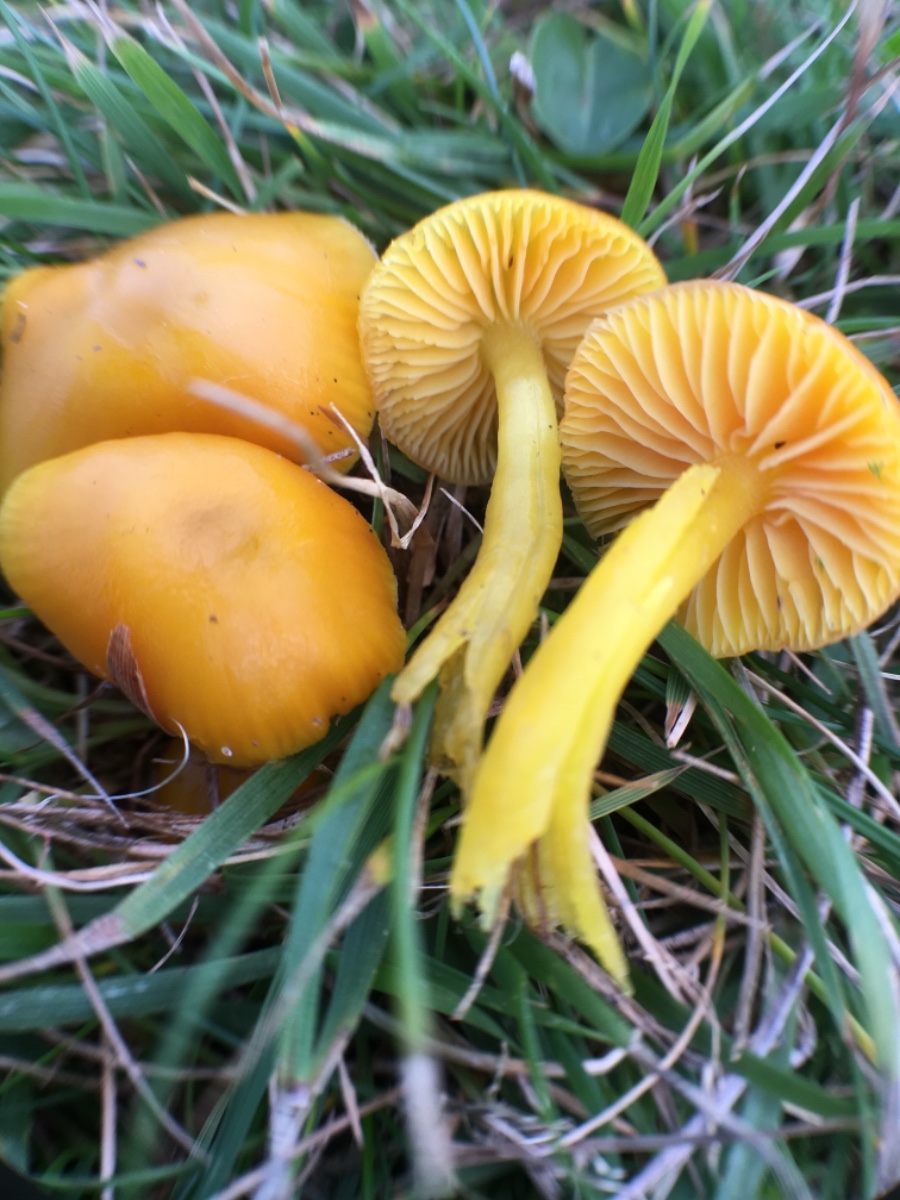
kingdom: Fungi
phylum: Basidiomycota
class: Agaricomycetes
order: Agaricales
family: Hygrophoraceae
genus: Hygrocybe
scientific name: Hygrocybe ceracea
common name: voksgul vokshat
